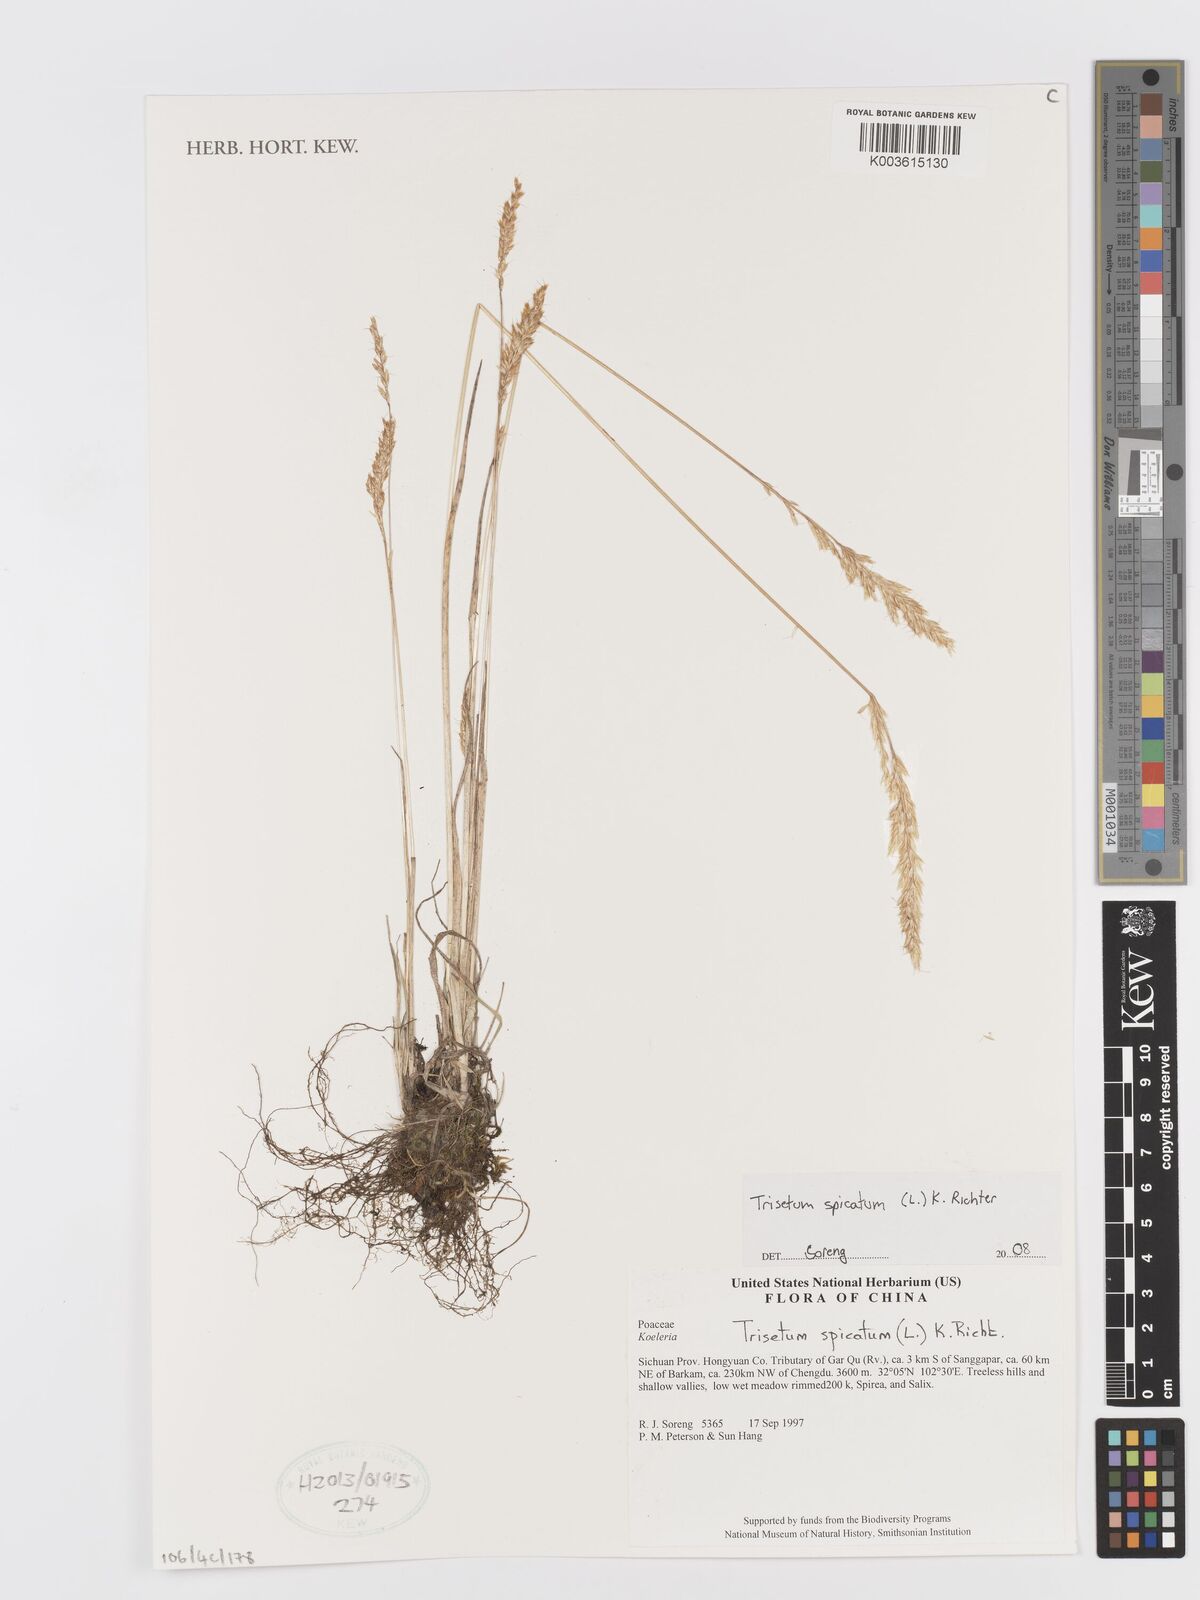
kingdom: Plantae
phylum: Tracheophyta
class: Liliopsida
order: Poales
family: Poaceae
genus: Koeleria
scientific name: Koeleria spicata
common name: Mountain trisetum
